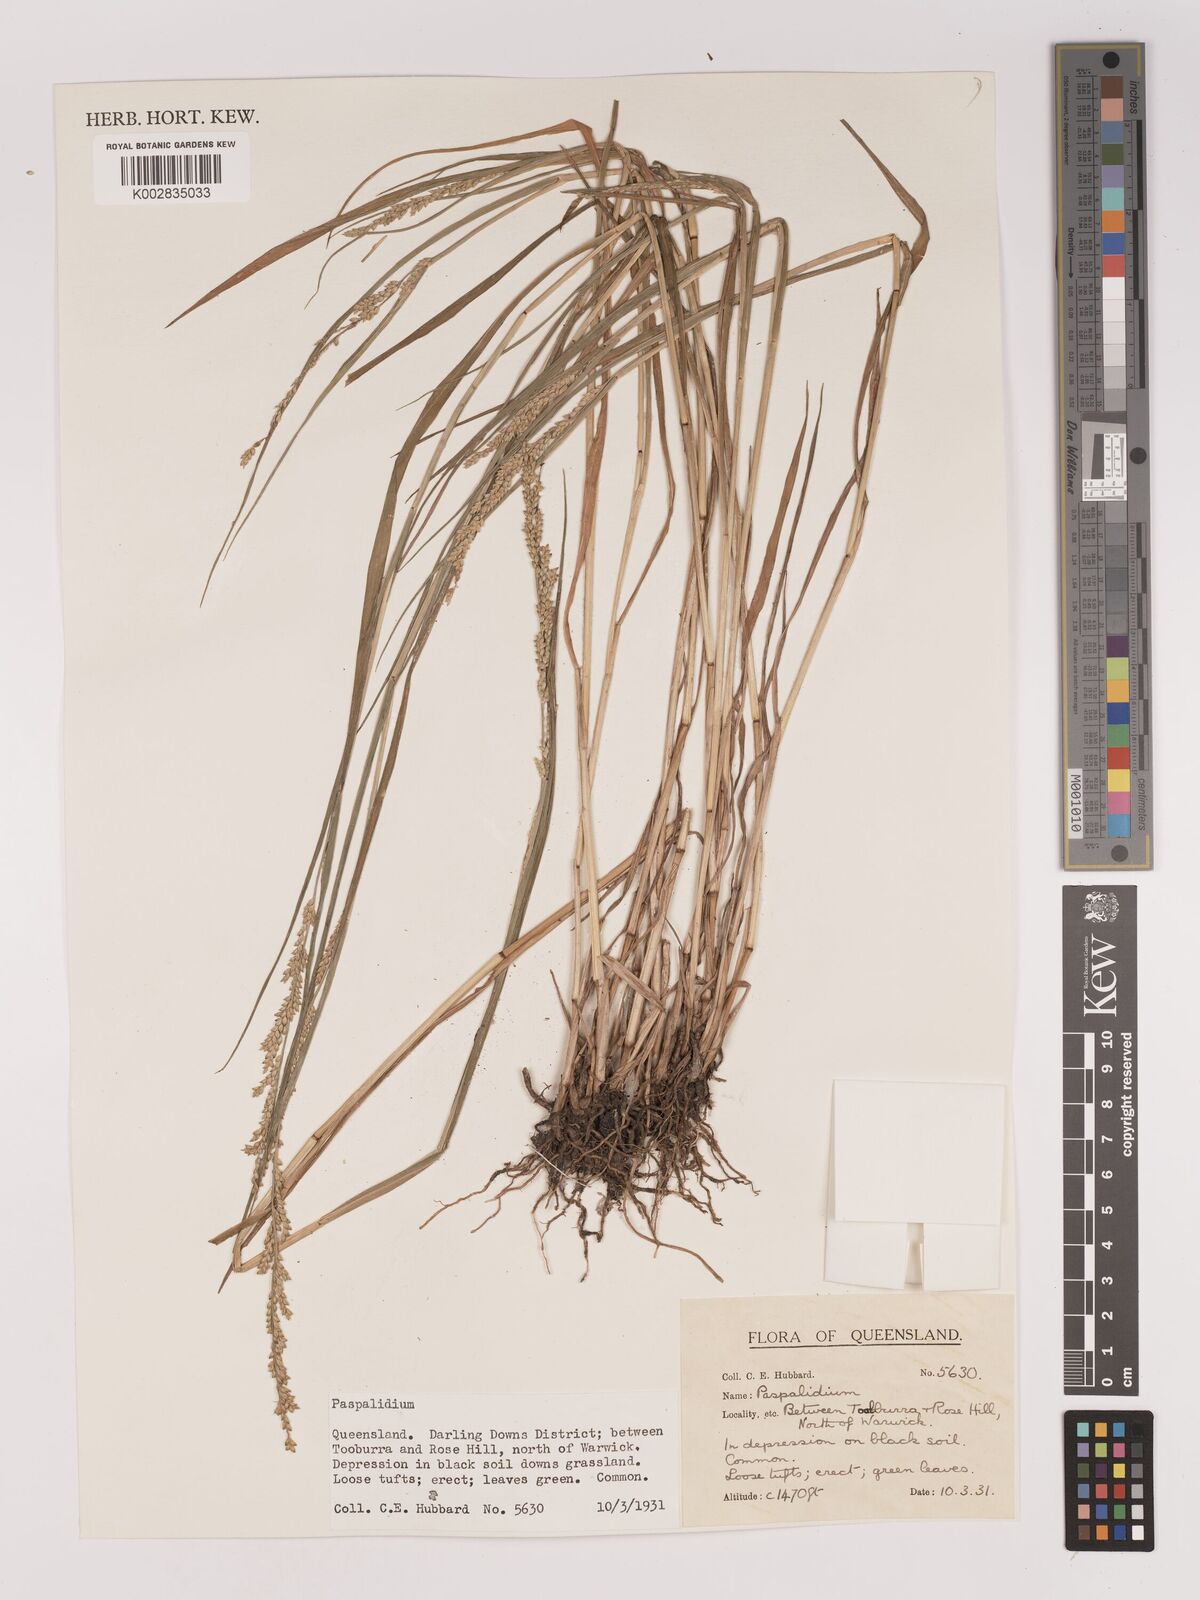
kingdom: Plantae
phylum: Tracheophyta
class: Liliopsida
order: Poales
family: Poaceae
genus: Setaria
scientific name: Setaria
